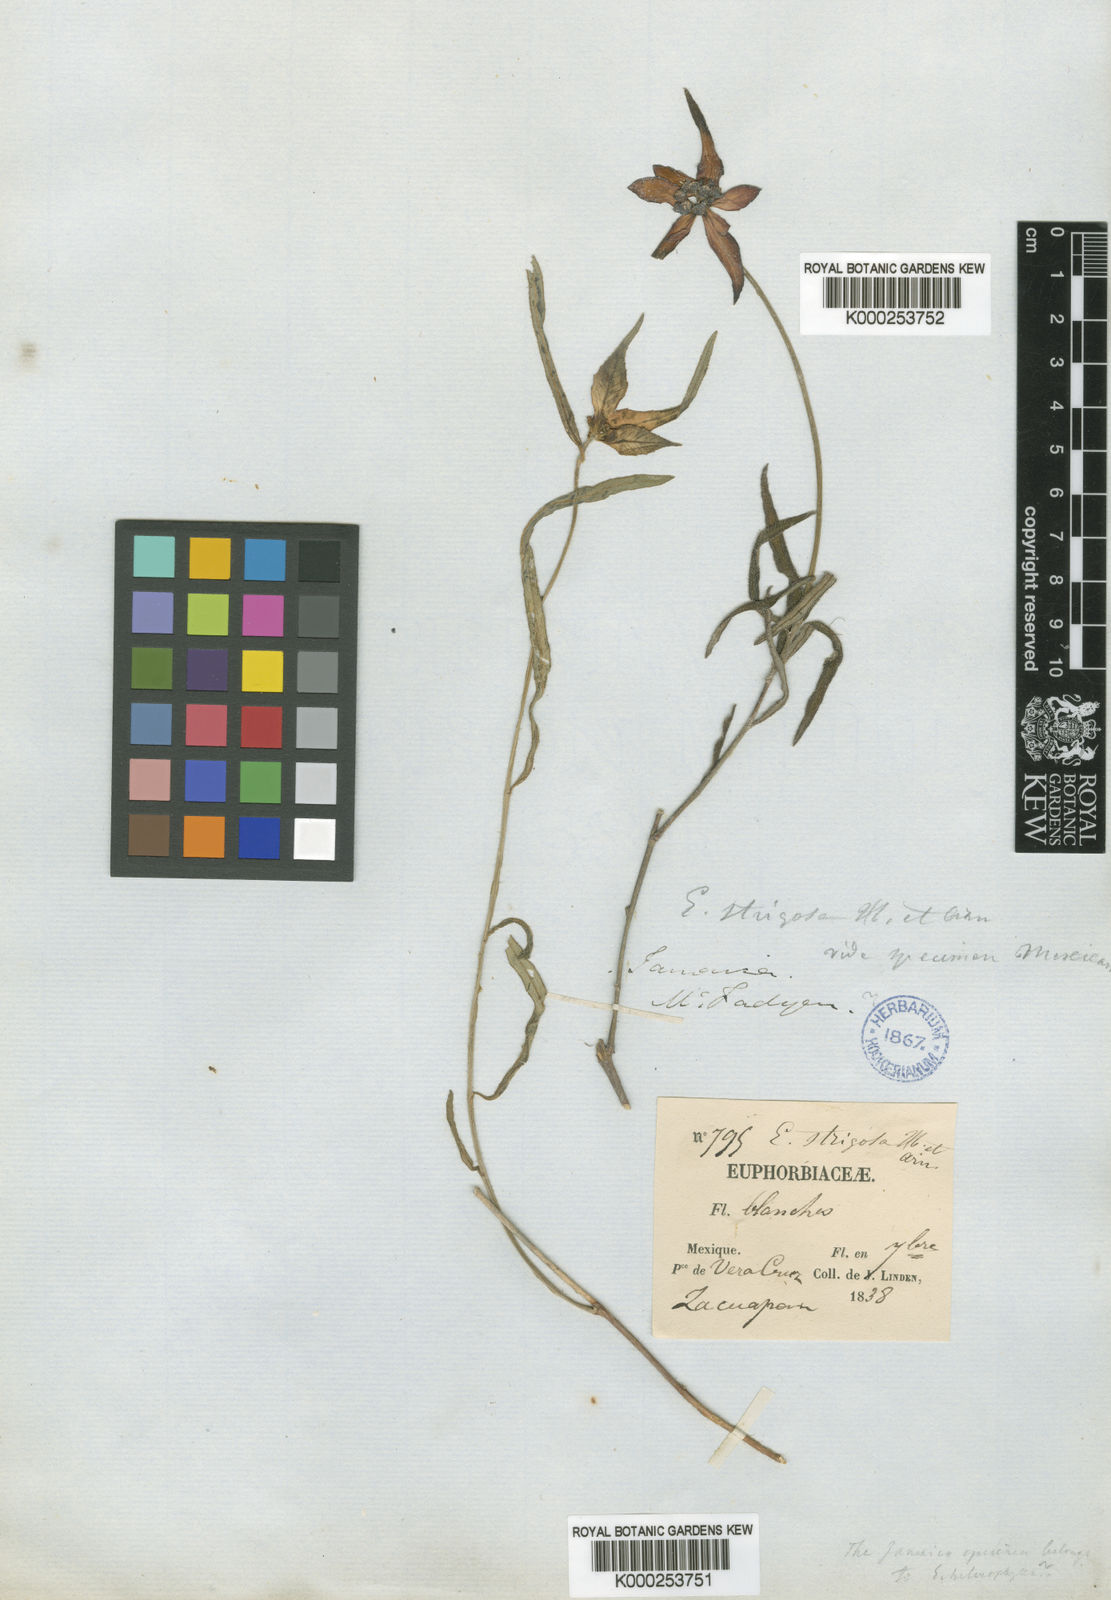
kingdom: Plantae
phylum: Tracheophyta
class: Magnoliopsida
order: Malpighiales
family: Euphorbiaceae
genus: Euphorbia
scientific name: Euphorbia strigosa
